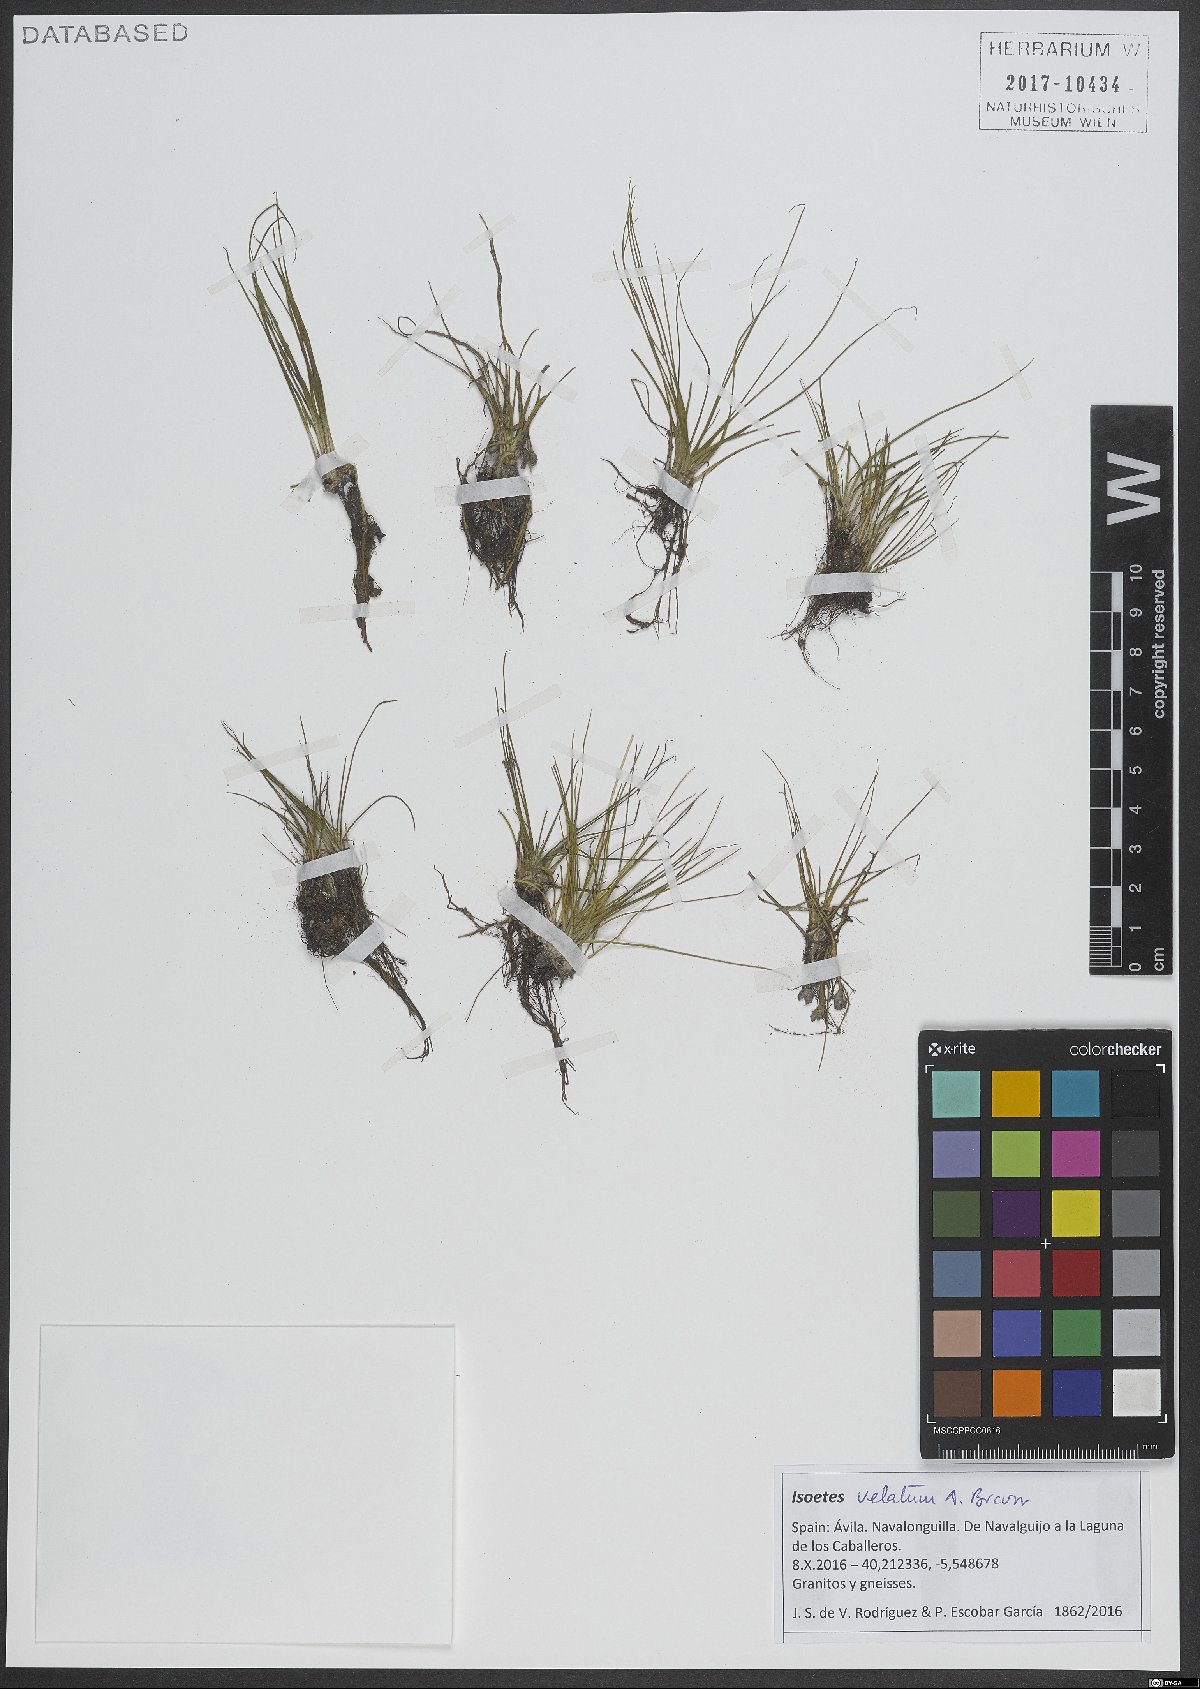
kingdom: Plantae
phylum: Tracheophyta
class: Lycopodiopsida
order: Isoetales
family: Isoetaceae
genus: Isoetes
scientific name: Isoetes longissima
